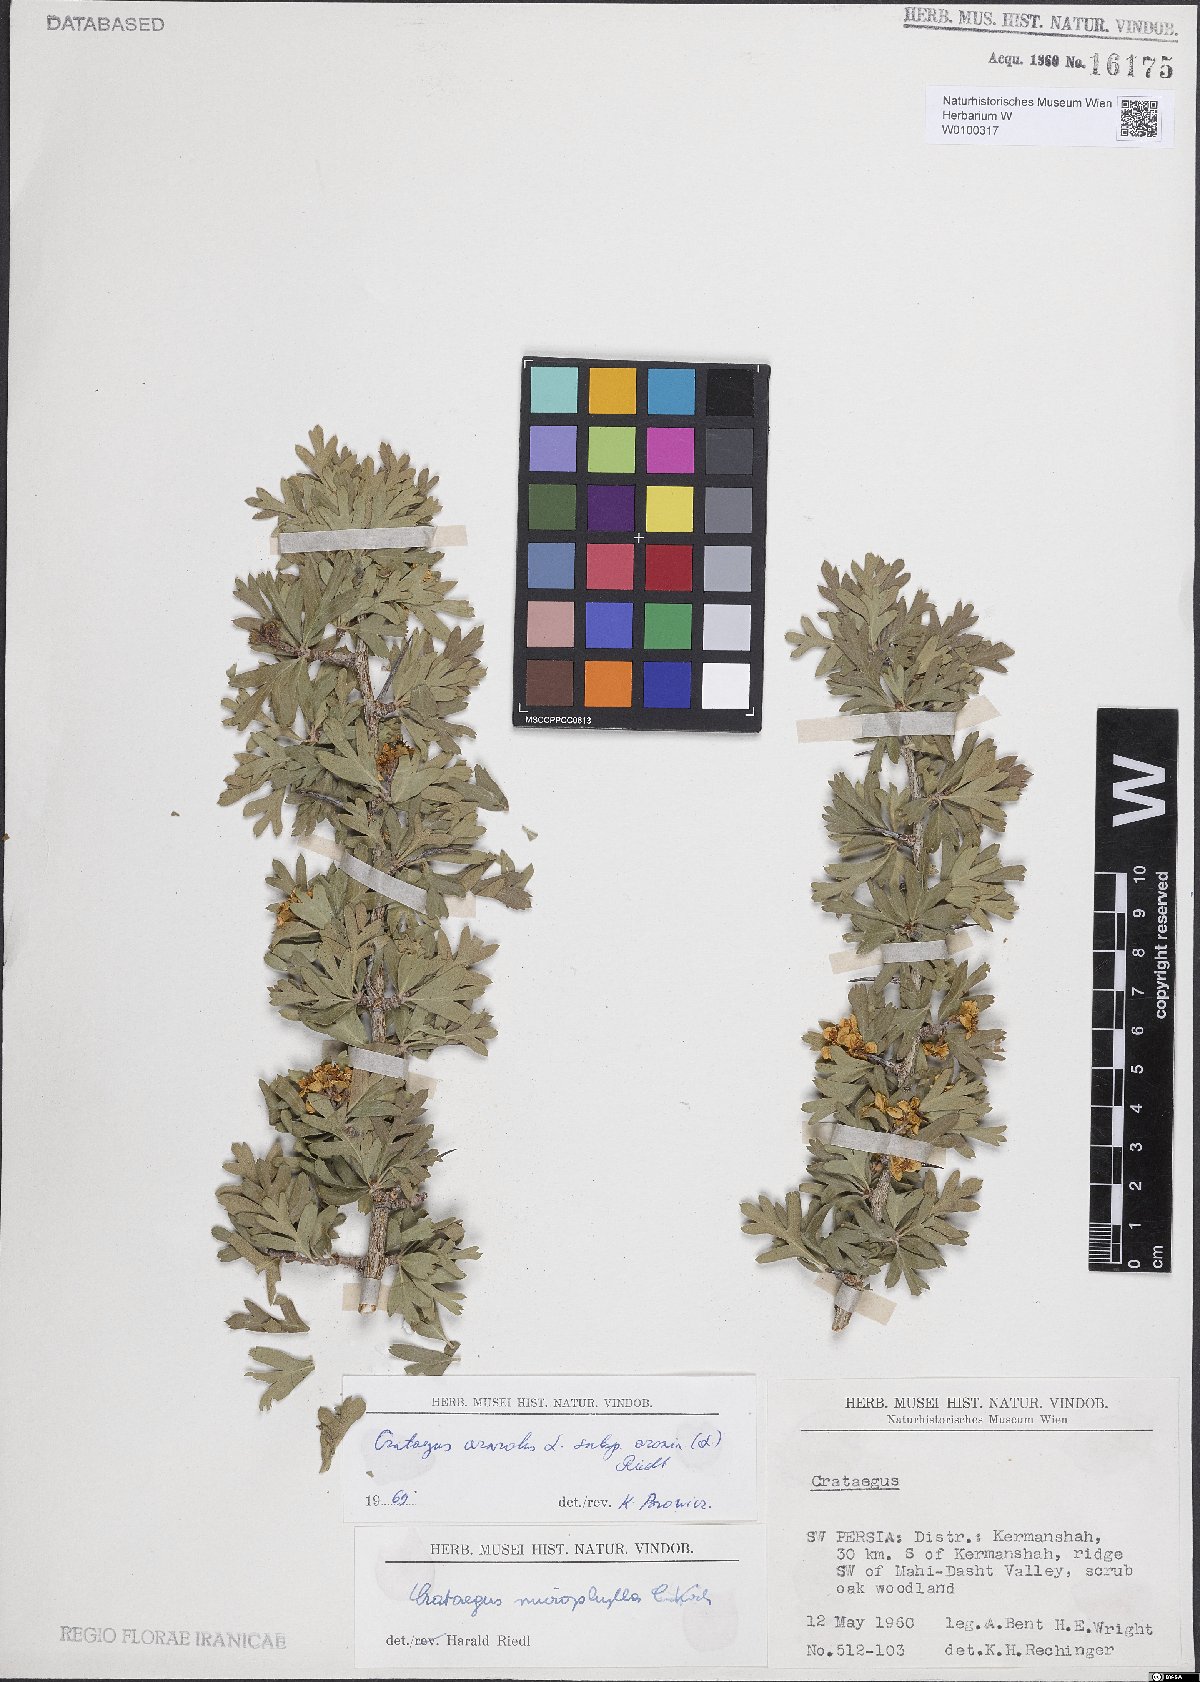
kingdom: Plantae
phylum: Tracheophyta
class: Magnoliopsida
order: Rosales
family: Rosaceae
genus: Crataegus
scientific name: Crataegus azarolus
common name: Azarole
